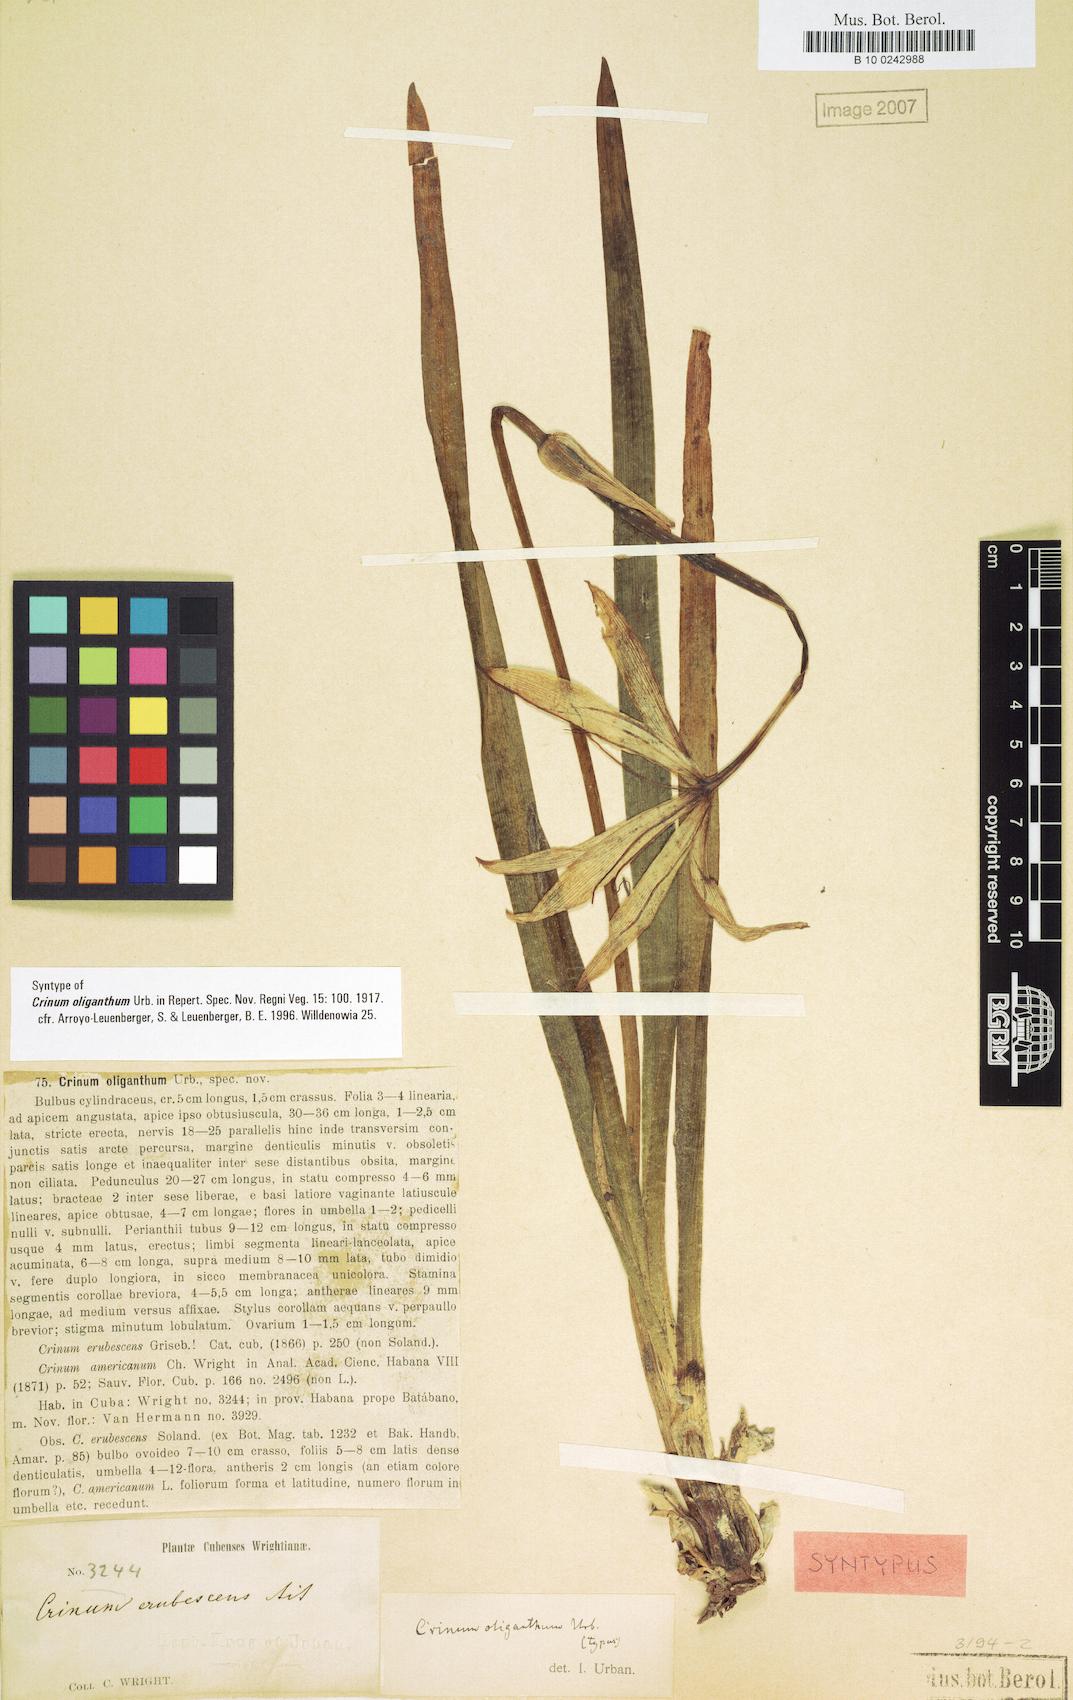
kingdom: Plantae
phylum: Tracheophyta
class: Liliopsida
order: Asparagales
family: Amaryllidaceae
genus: Crinum
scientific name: Crinum oliganthum
